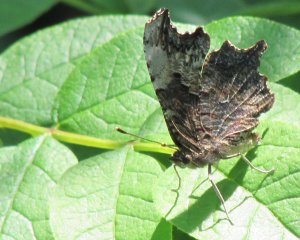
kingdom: Animalia
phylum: Arthropoda
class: Insecta
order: Lepidoptera
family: Nymphalidae
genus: Polygonia
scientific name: Polygonia progne
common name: Gray Comma
